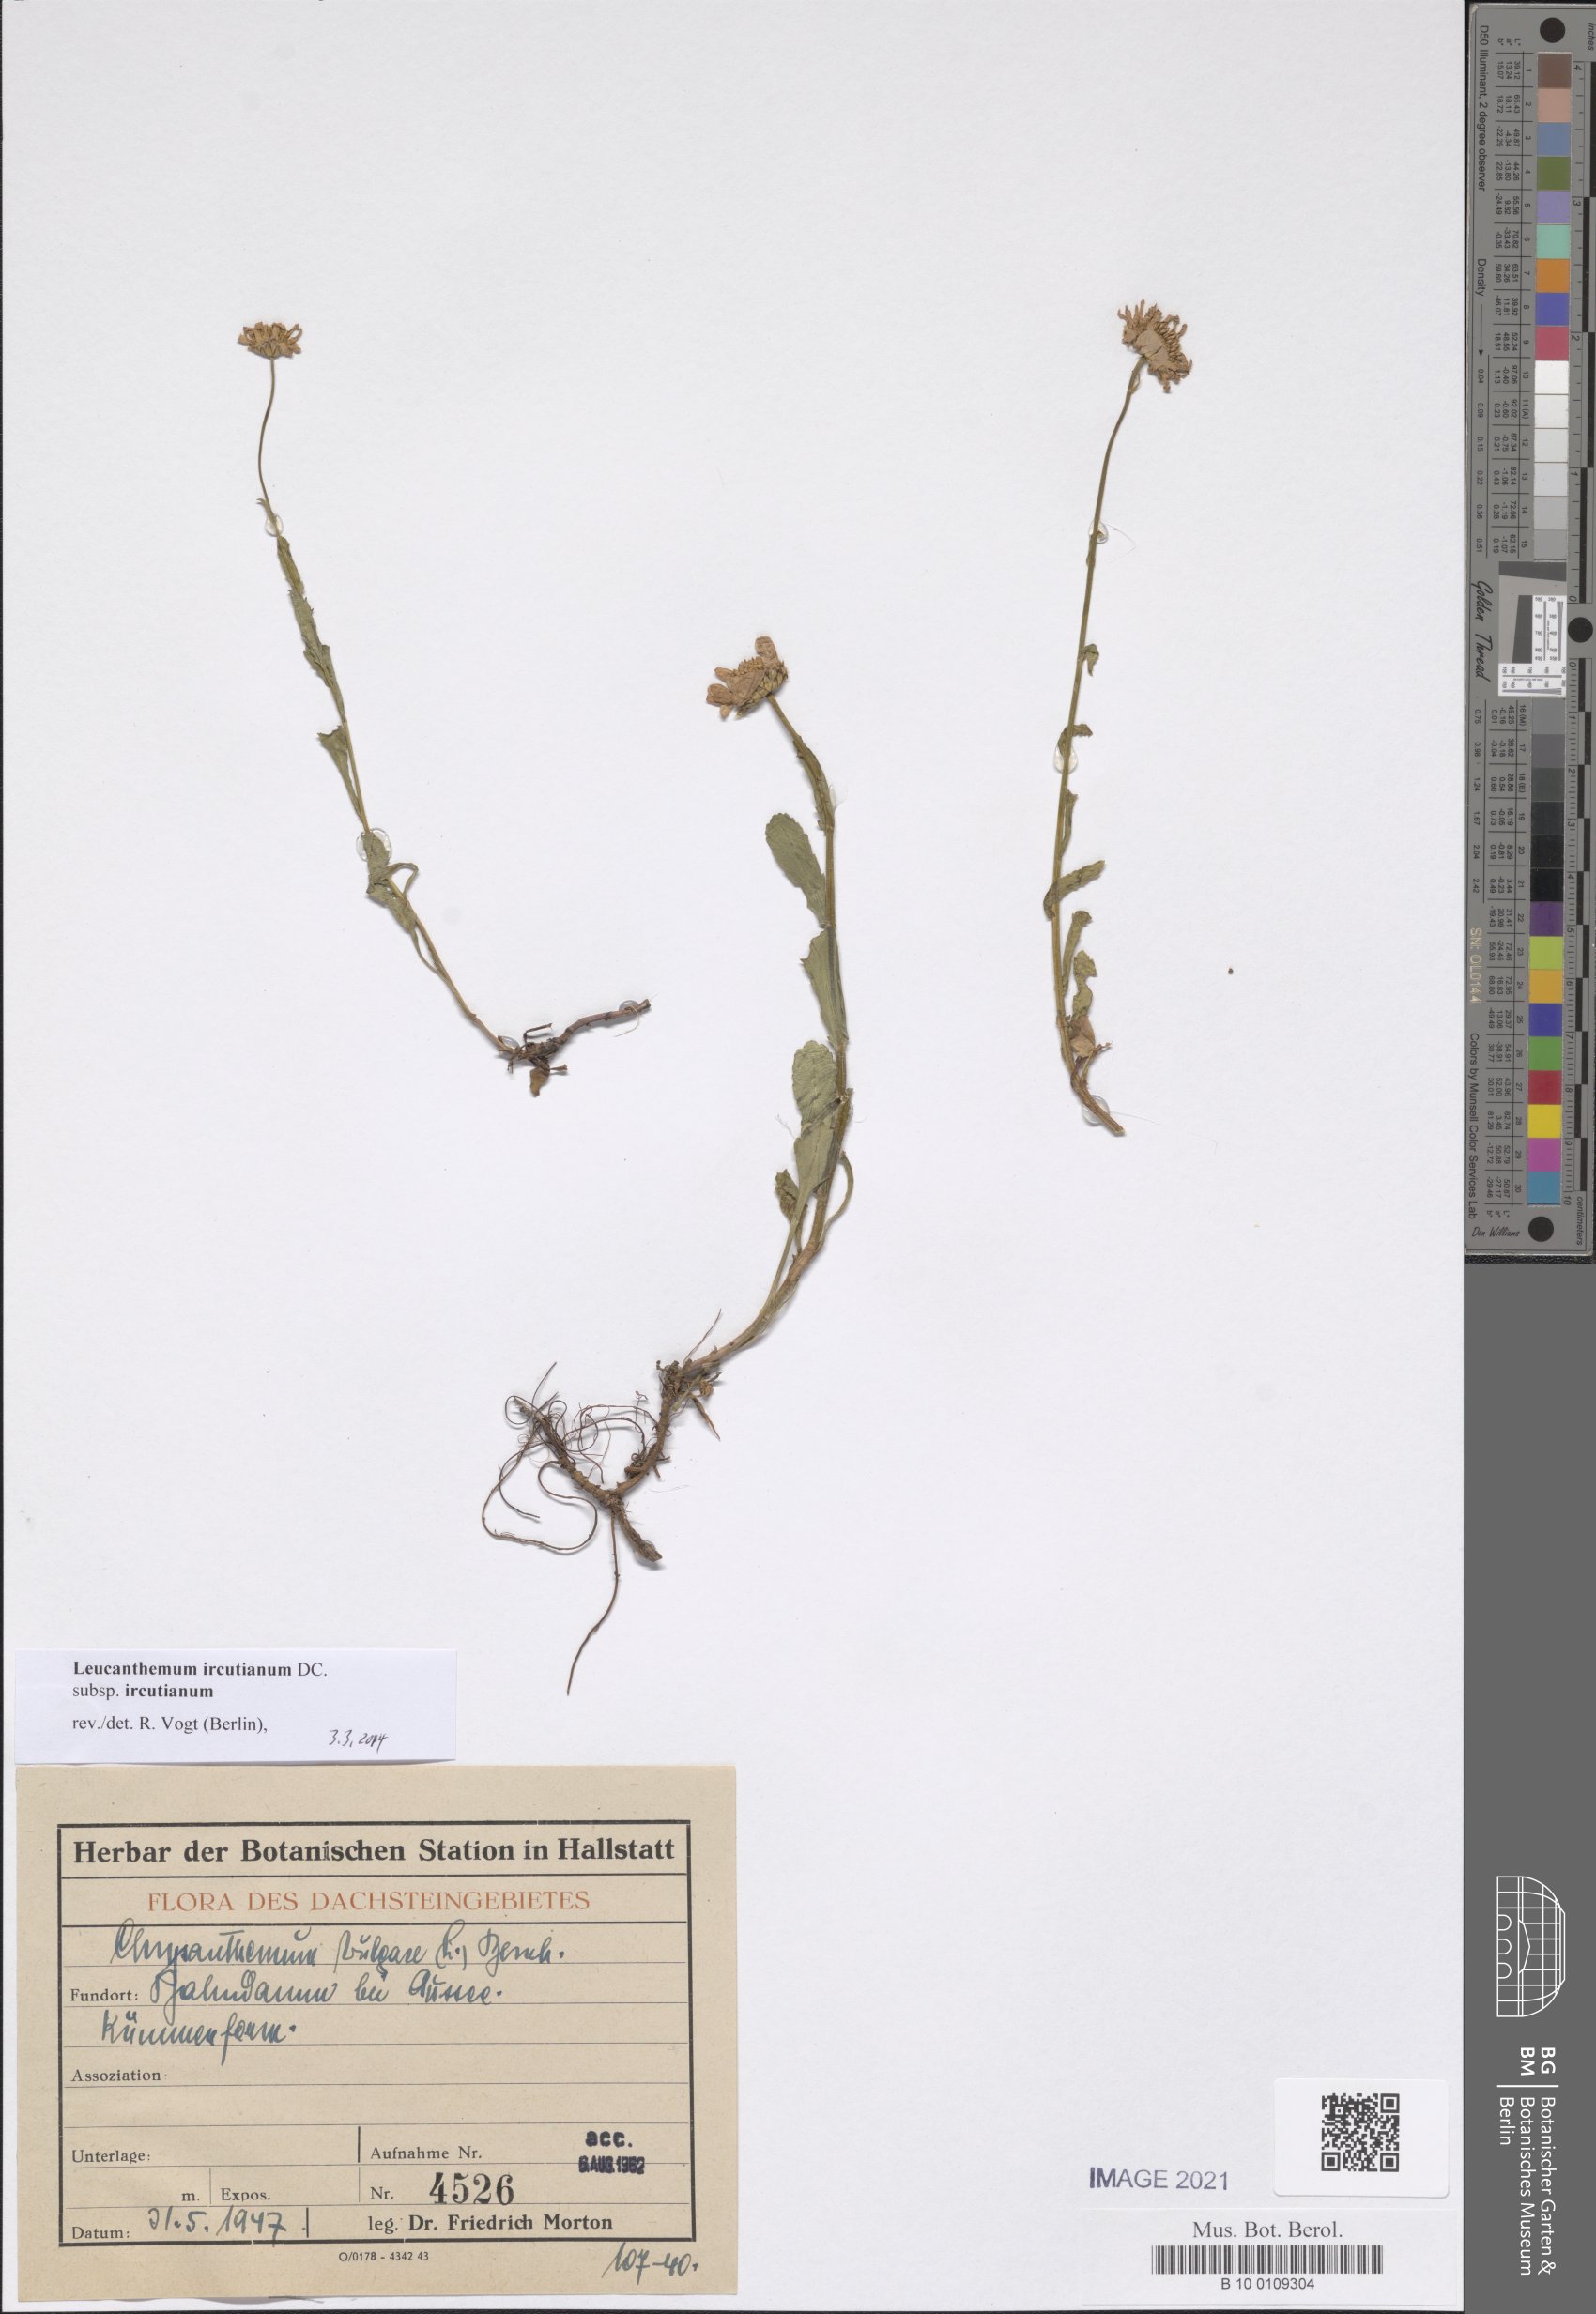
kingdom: Plantae
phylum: Tracheophyta
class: Magnoliopsida
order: Asterales
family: Asteraceae
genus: Leucanthemum
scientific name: Leucanthemum ircutianum
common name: Daisy
